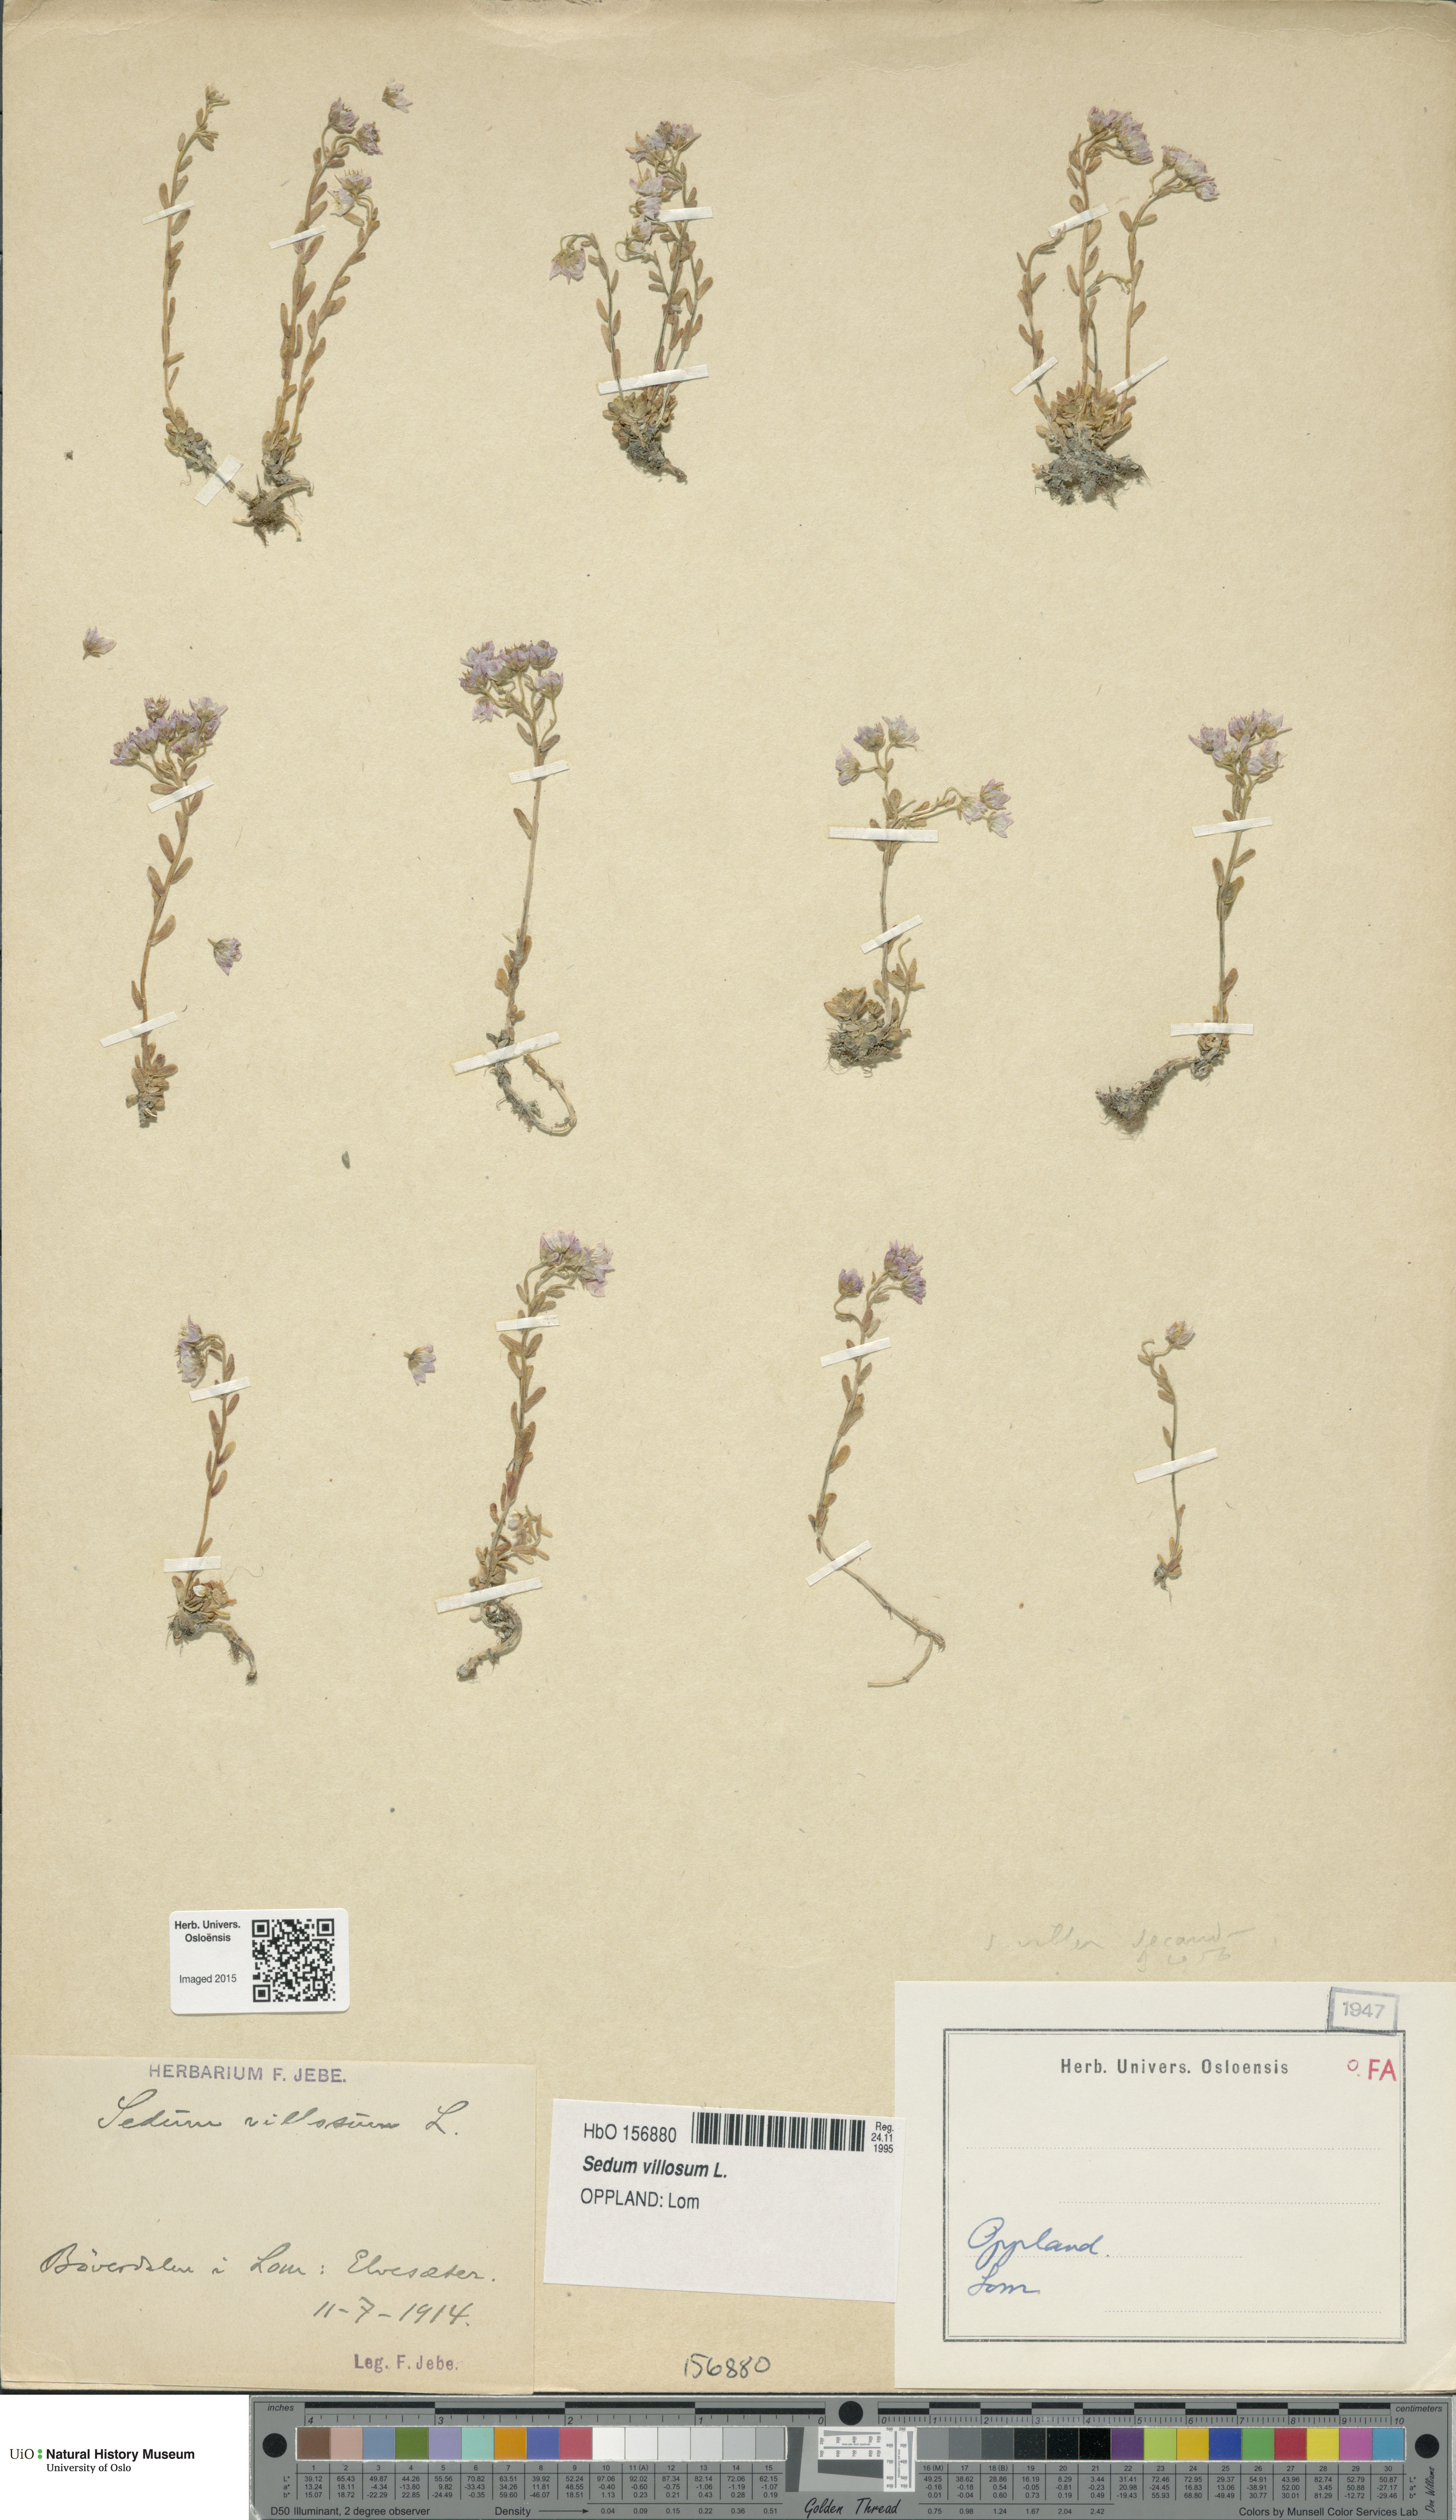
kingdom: Plantae
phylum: Tracheophyta
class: Magnoliopsida
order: Saxifragales
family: Crassulaceae
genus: Sedum
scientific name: Sedum villosum
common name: Hairy stonecrop
